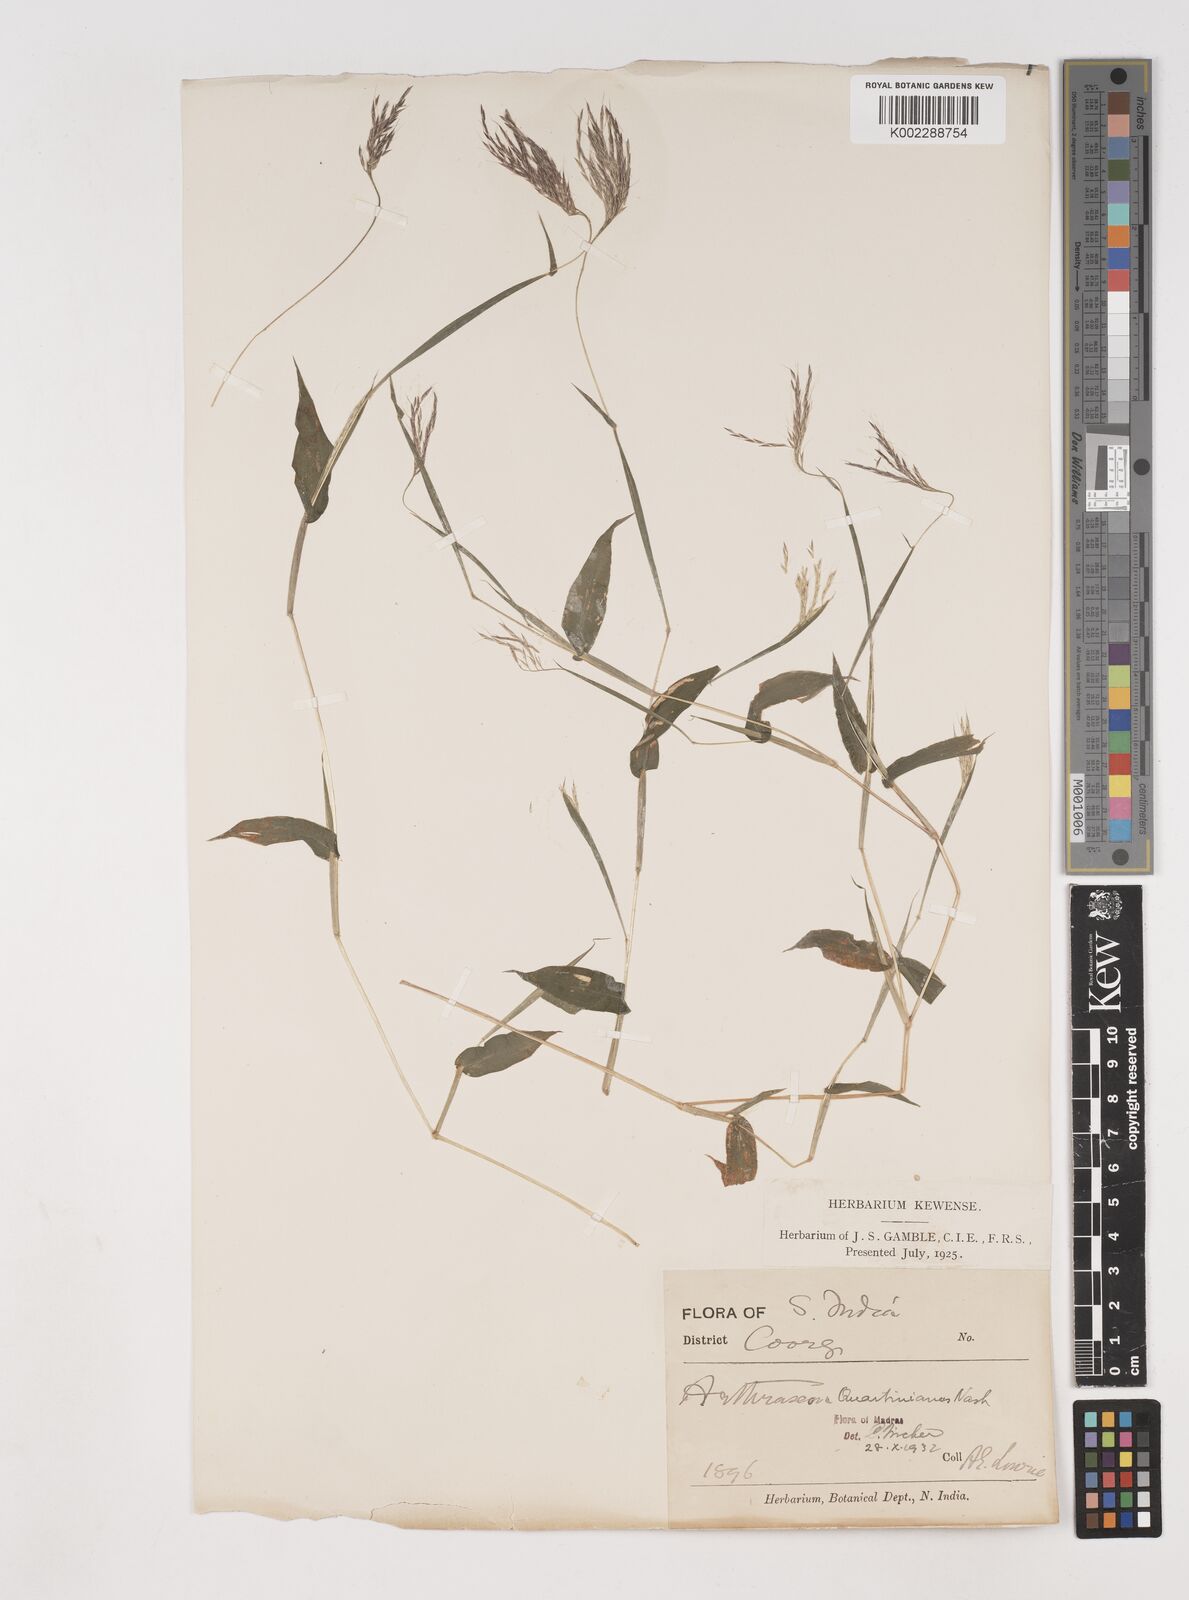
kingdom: Plantae
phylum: Tracheophyta
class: Liliopsida
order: Poales
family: Poaceae
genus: Arthraxon
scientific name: Arthraxon hispidus
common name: Small carpgrass
